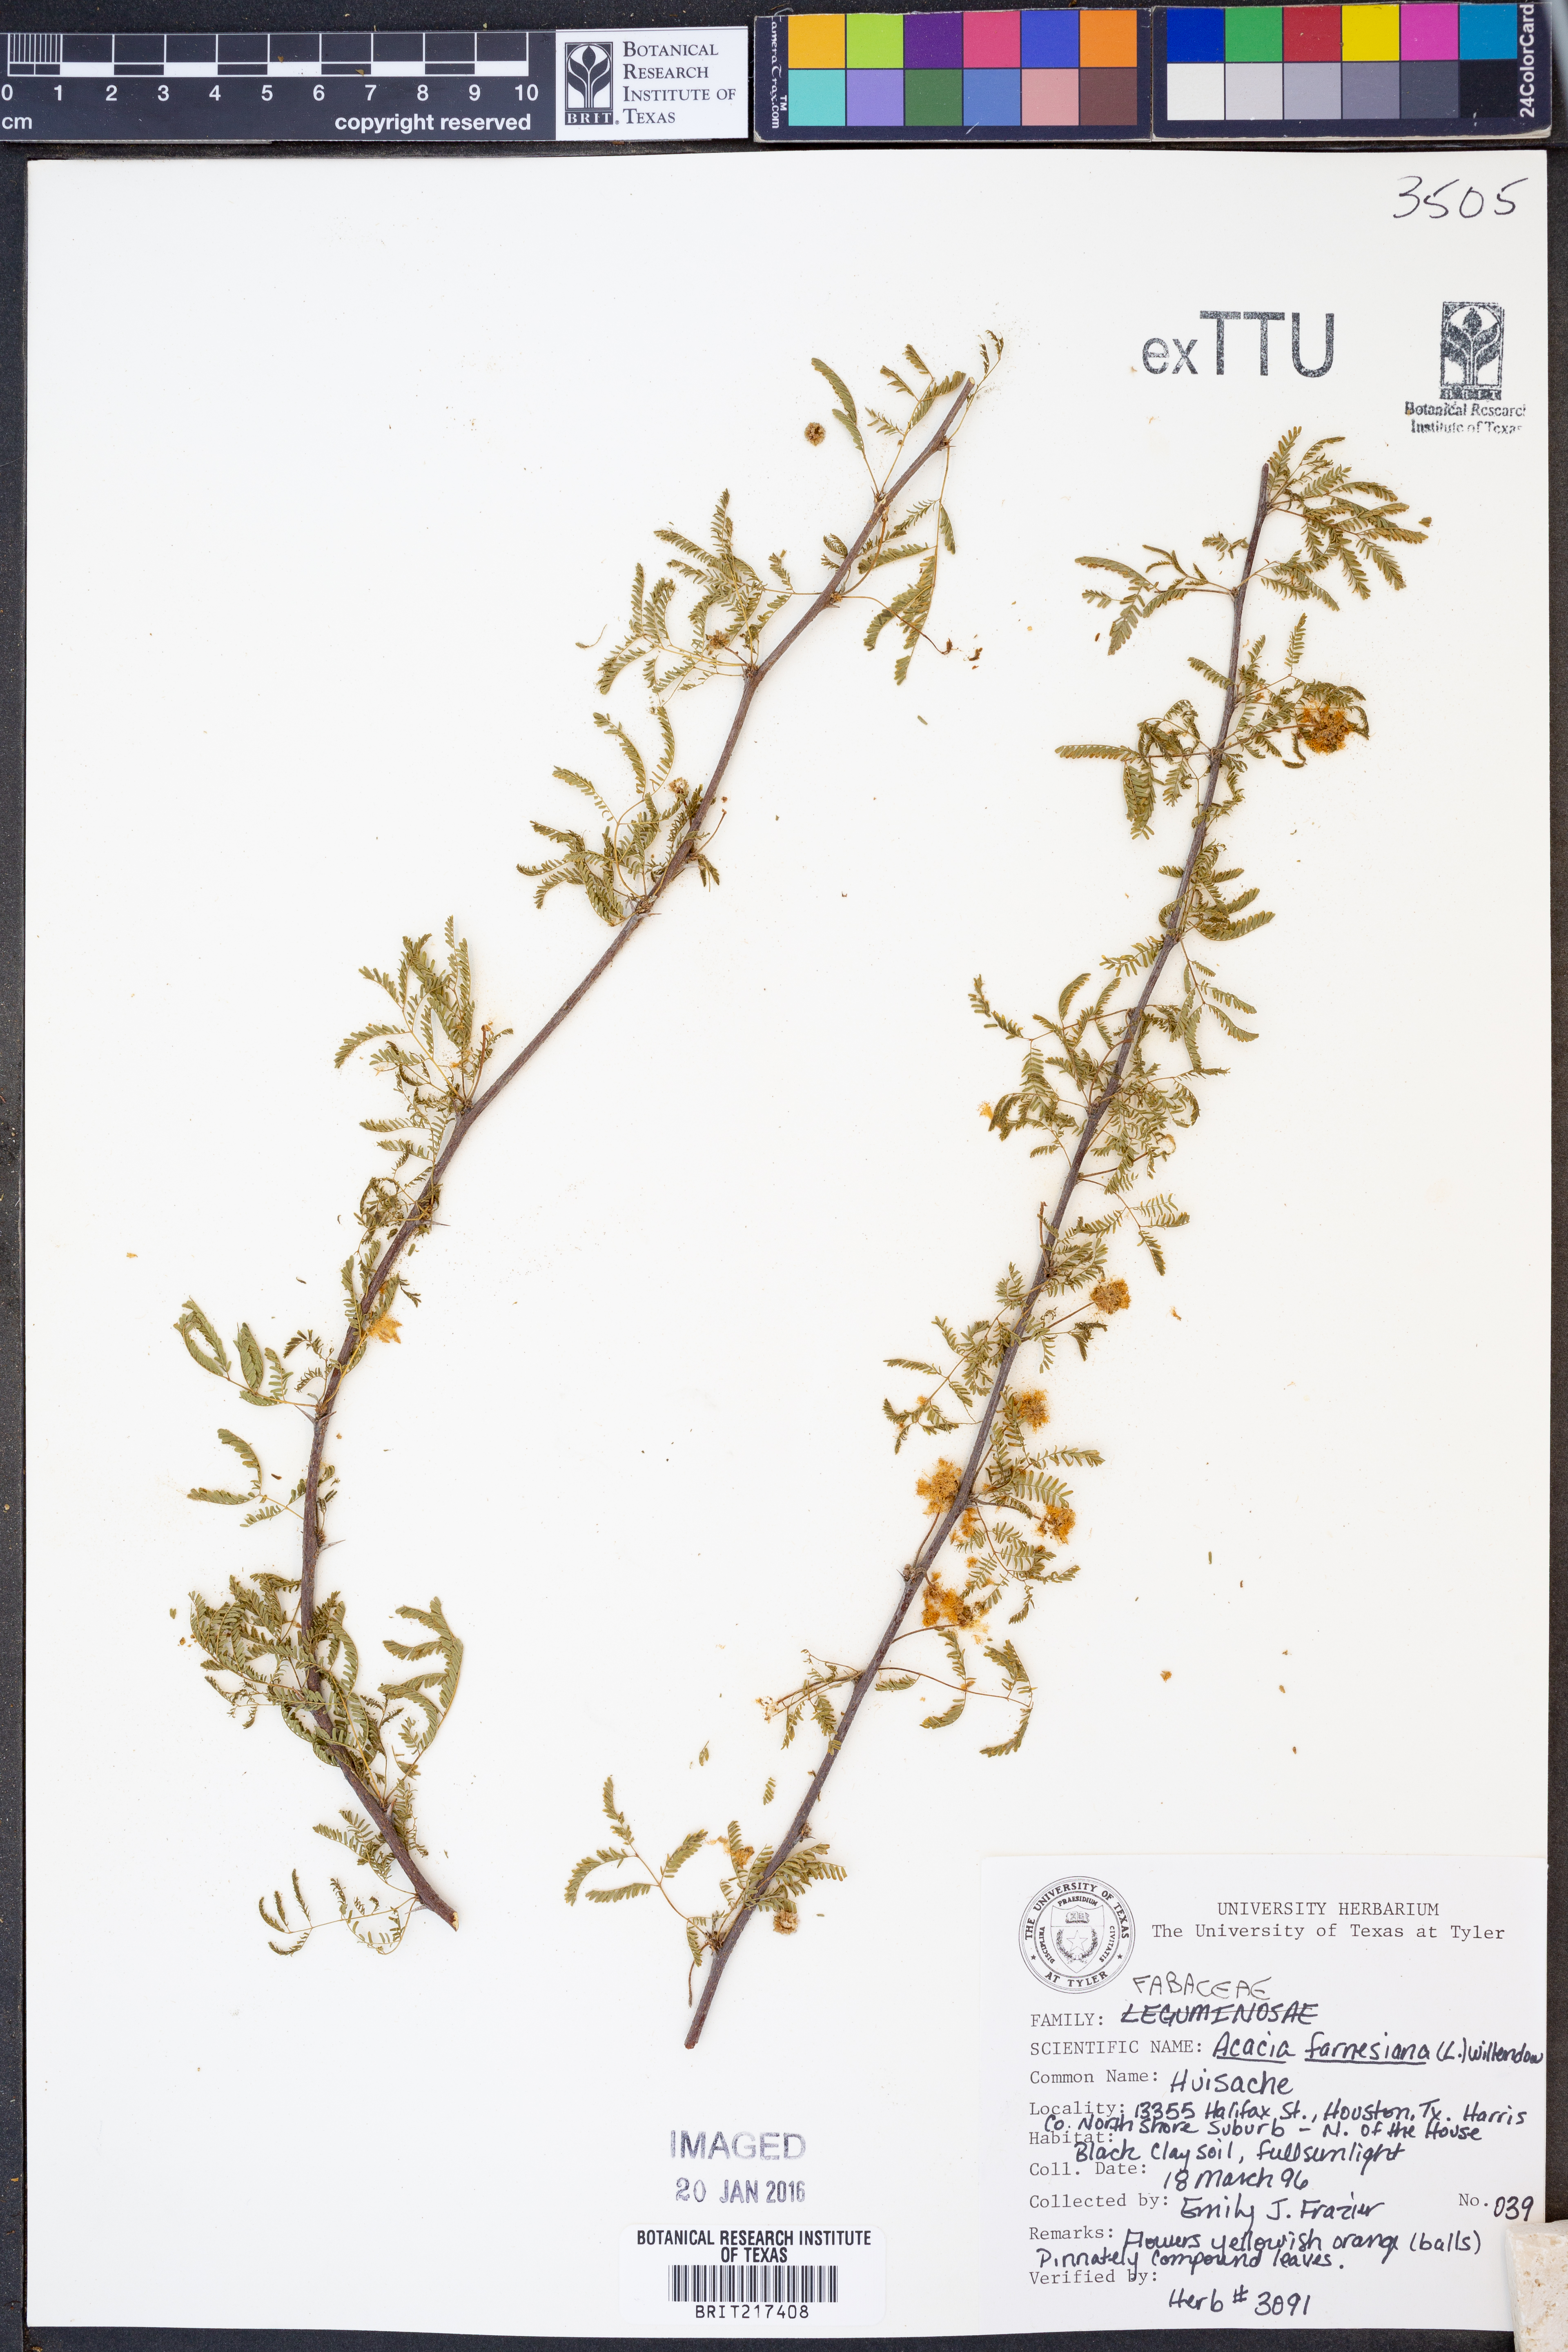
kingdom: Plantae
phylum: Tracheophyta
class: Magnoliopsida
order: Fabales
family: Fabaceae
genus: Vachellia
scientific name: Vachellia farnesiana
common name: Sweet acacia
